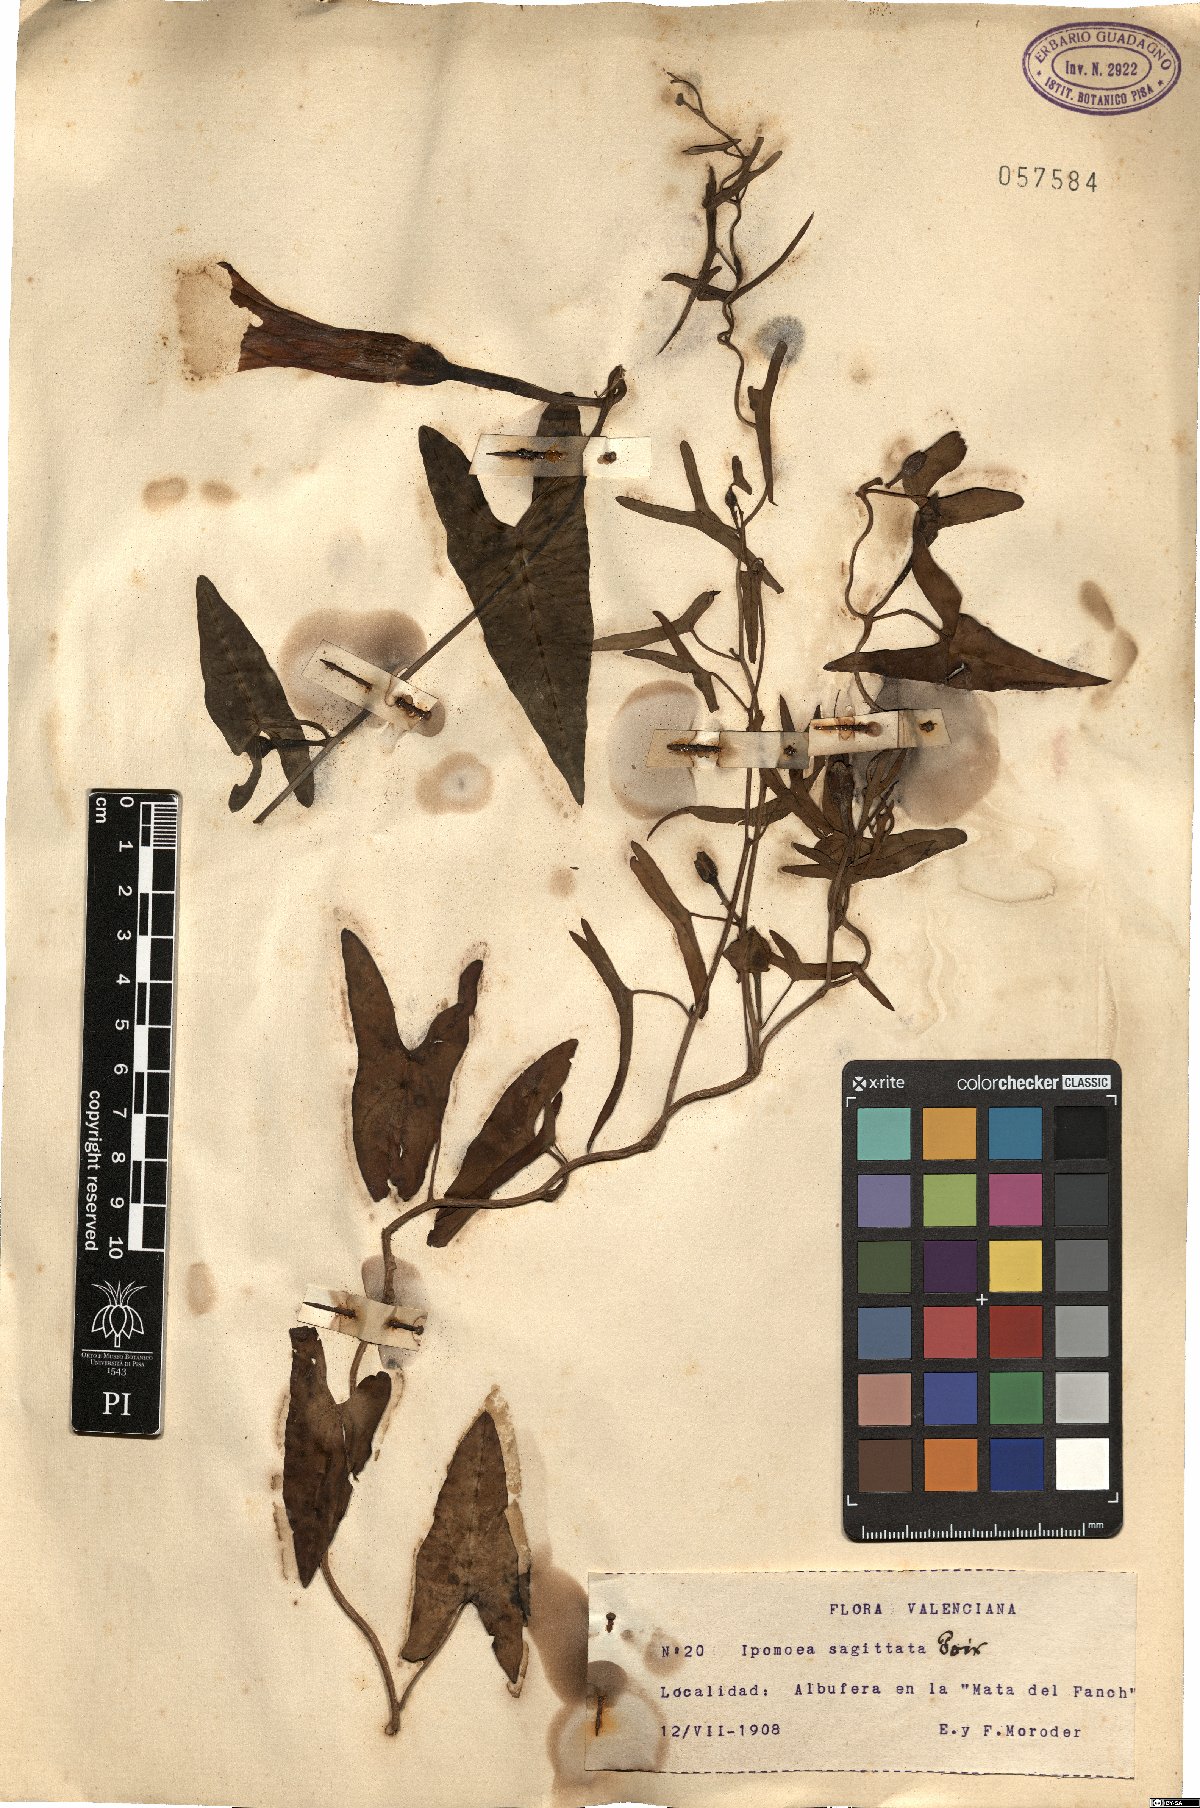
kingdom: Plantae
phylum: Tracheophyta
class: Magnoliopsida
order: Solanales
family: Convolvulaceae
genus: Ipomoea
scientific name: Ipomoea sagittata
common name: Saltmarsh morning glory
